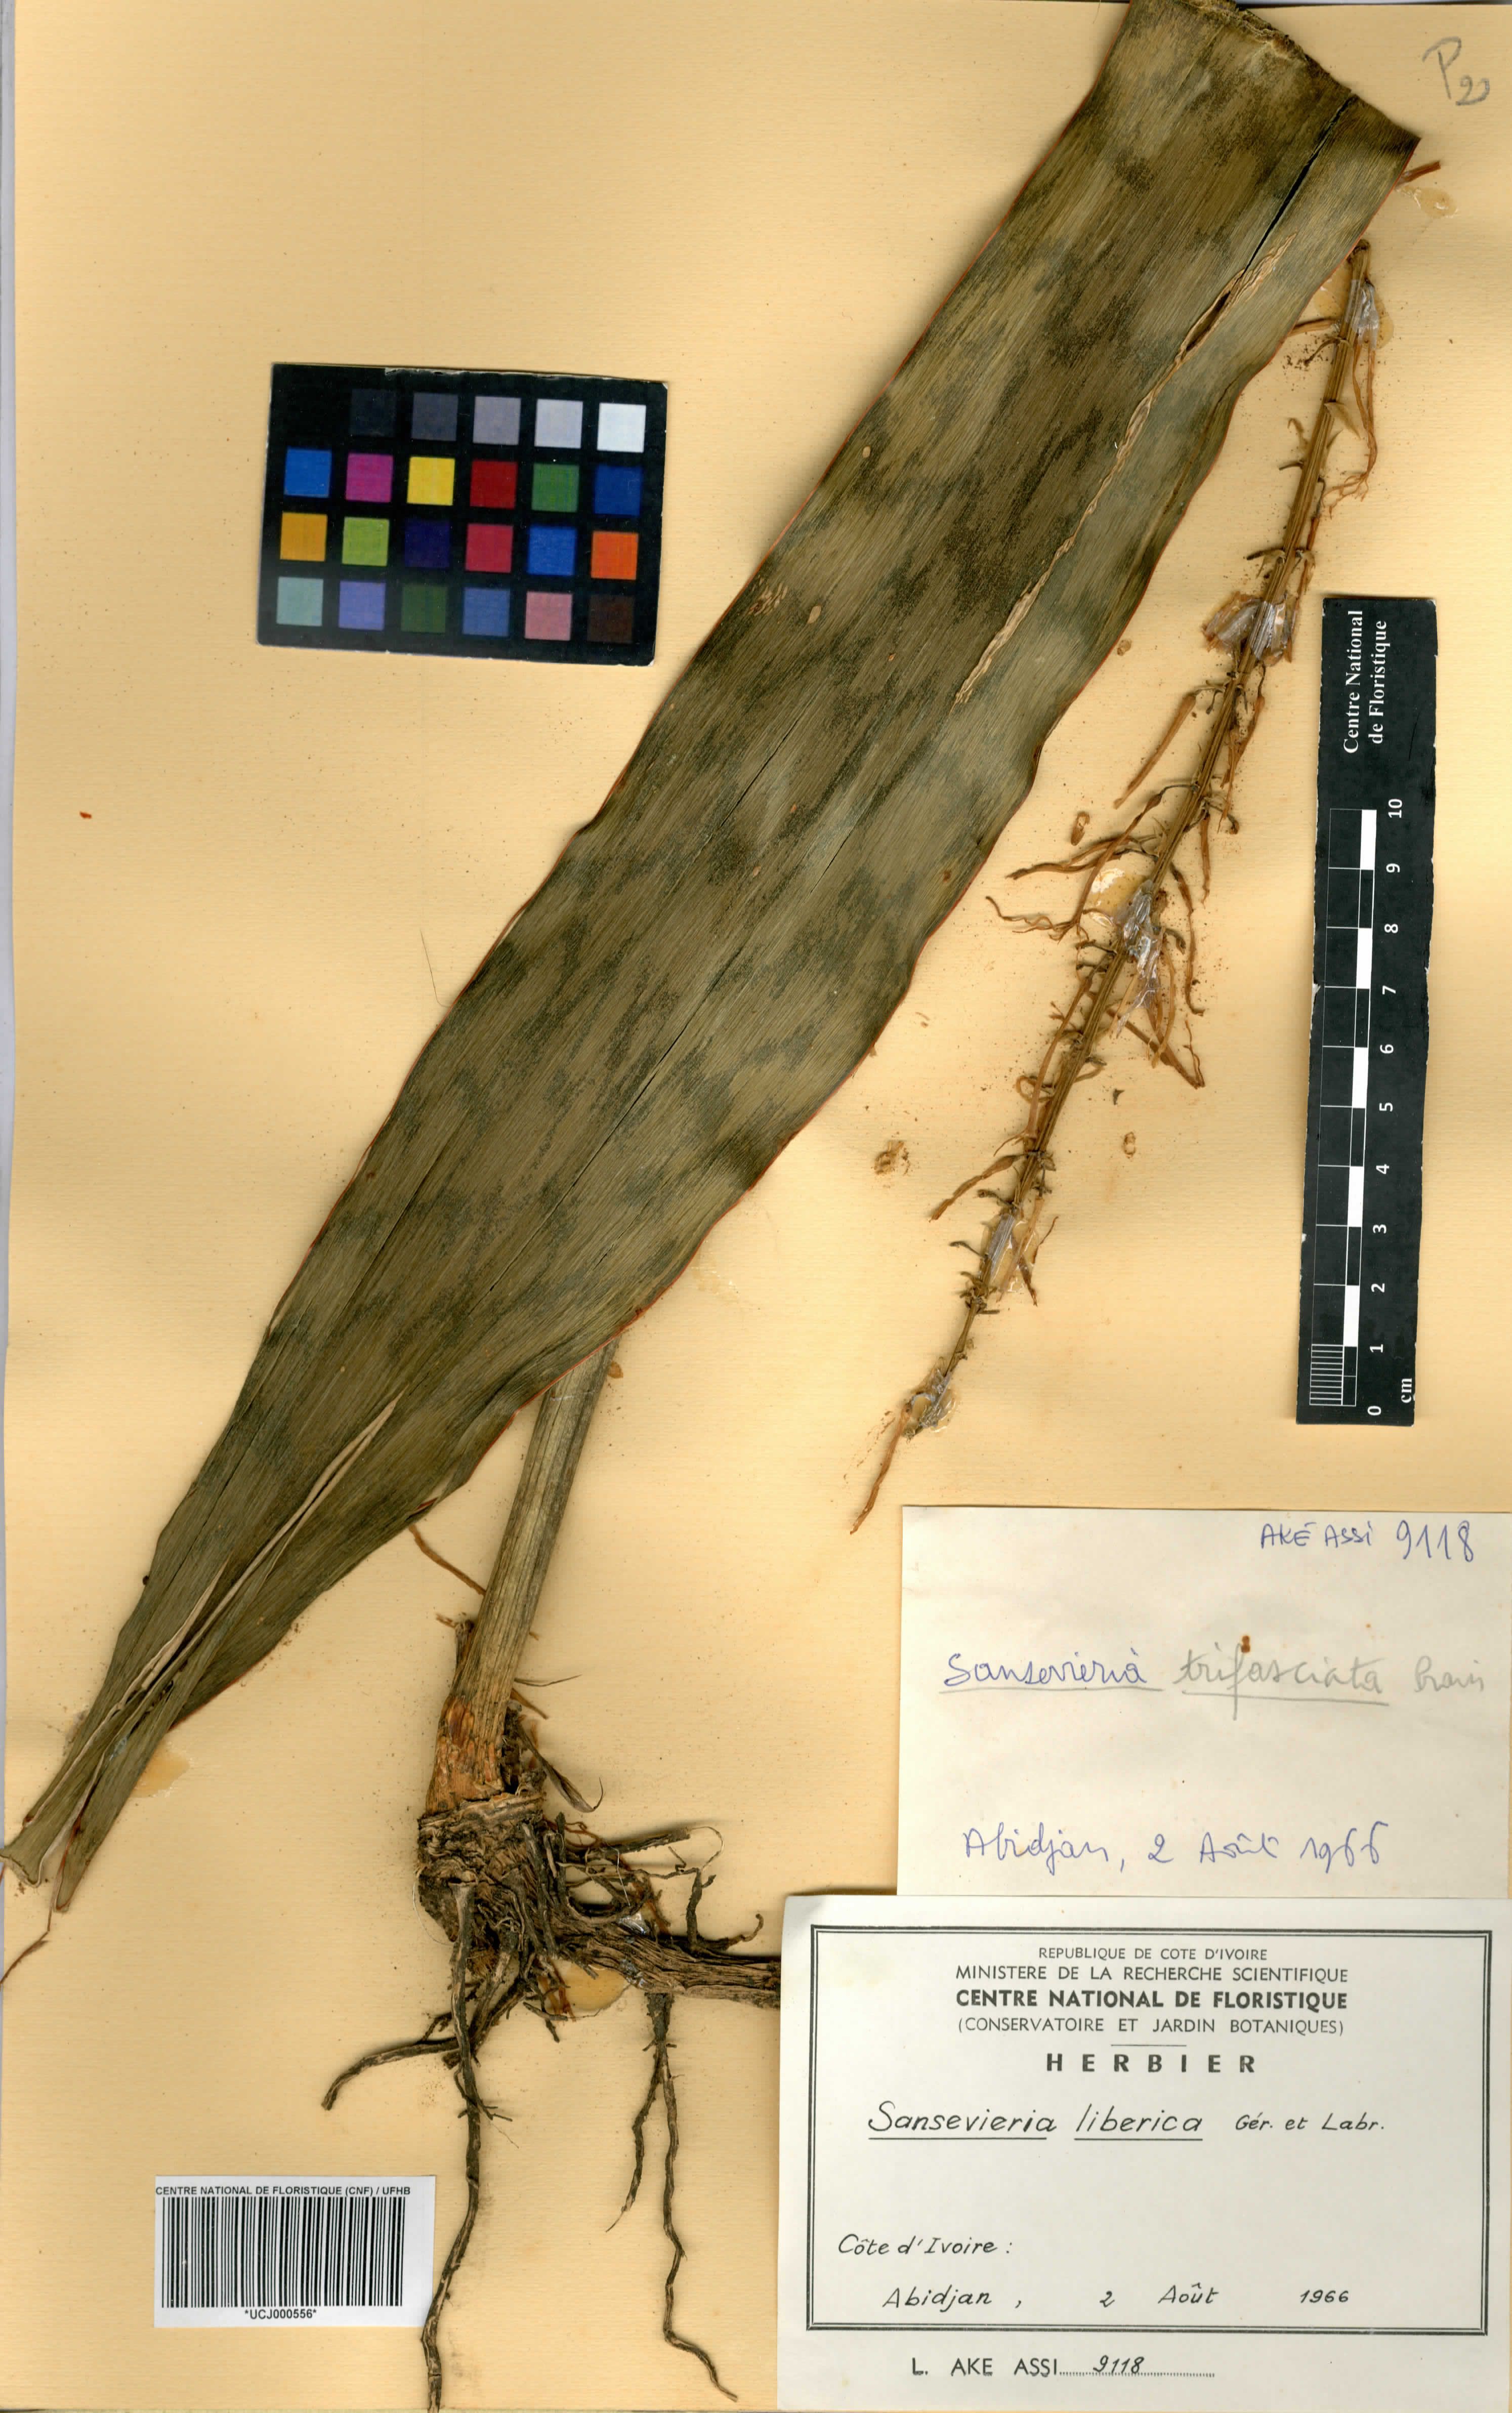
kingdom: Plantae
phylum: Tracheophyta
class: Liliopsida
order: Asparagales
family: Asparagaceae
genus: Dracaena
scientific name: Dracaena liberica
